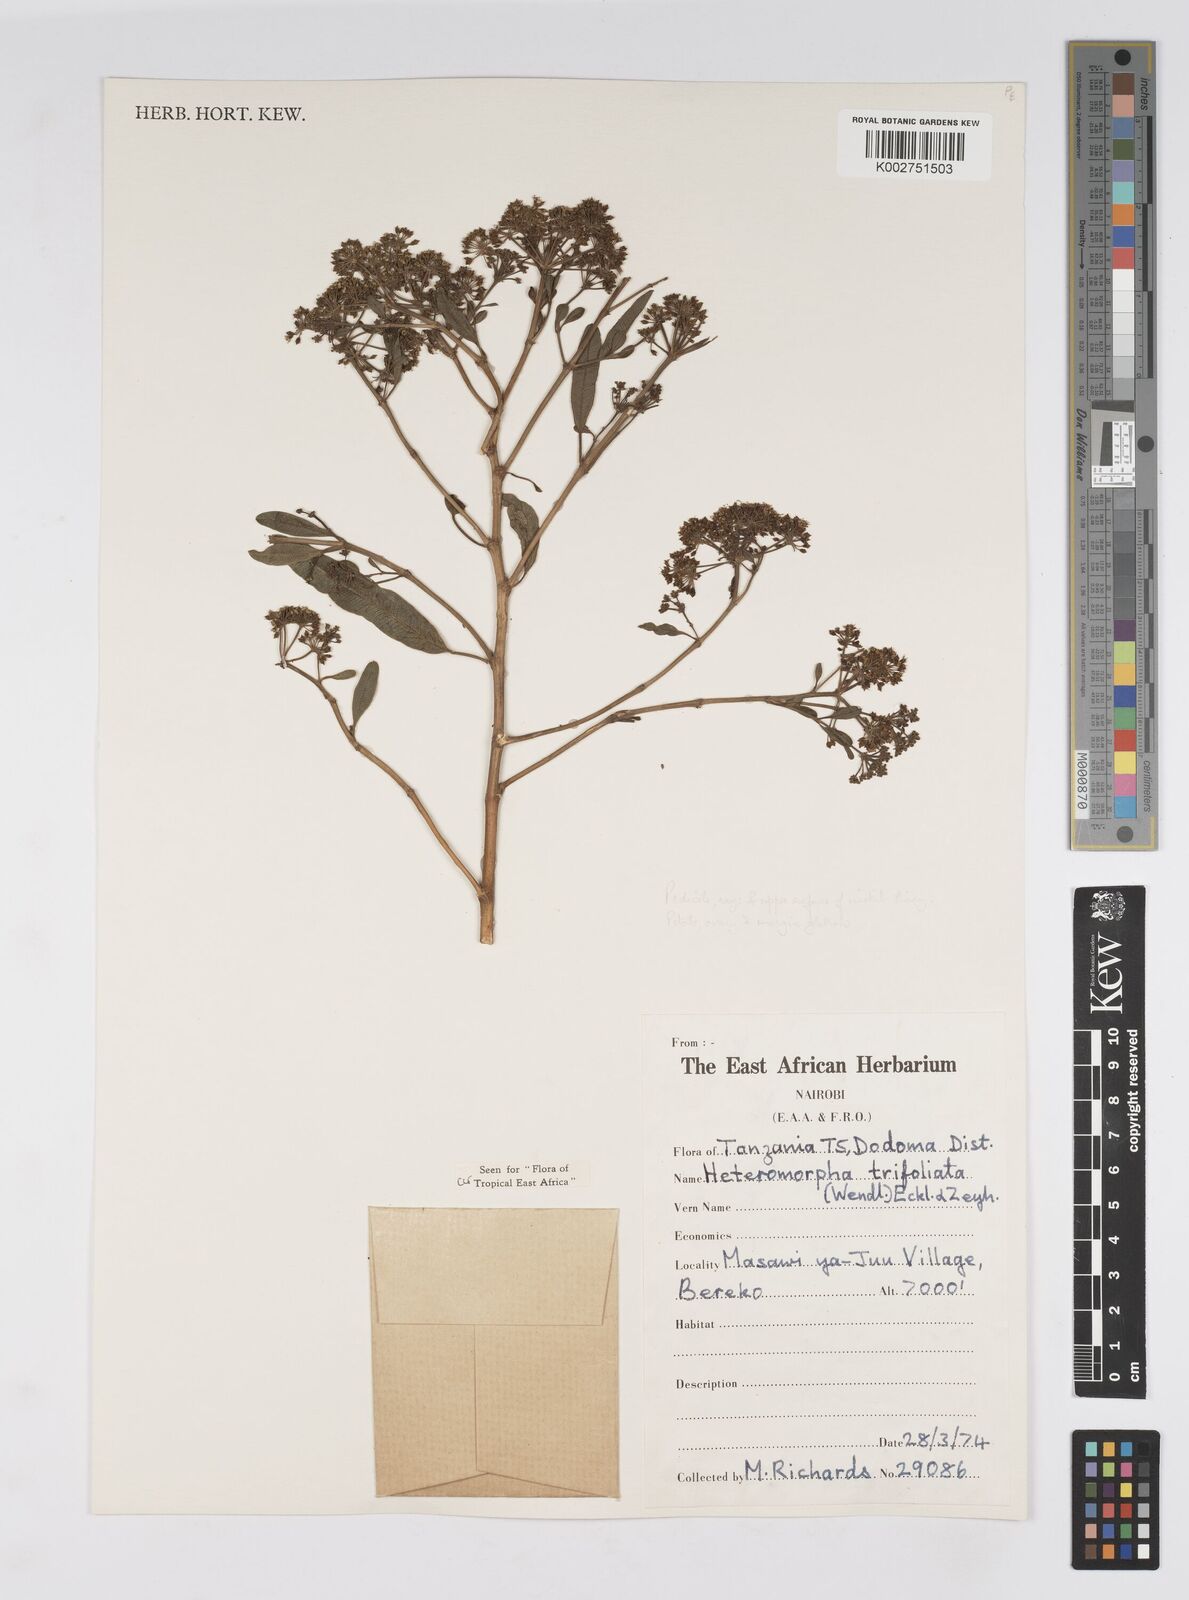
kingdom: Plantae
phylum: Tracheophyta
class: Magnoliopsida
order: Apiales
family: Apiaceae
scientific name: Apiaceae
